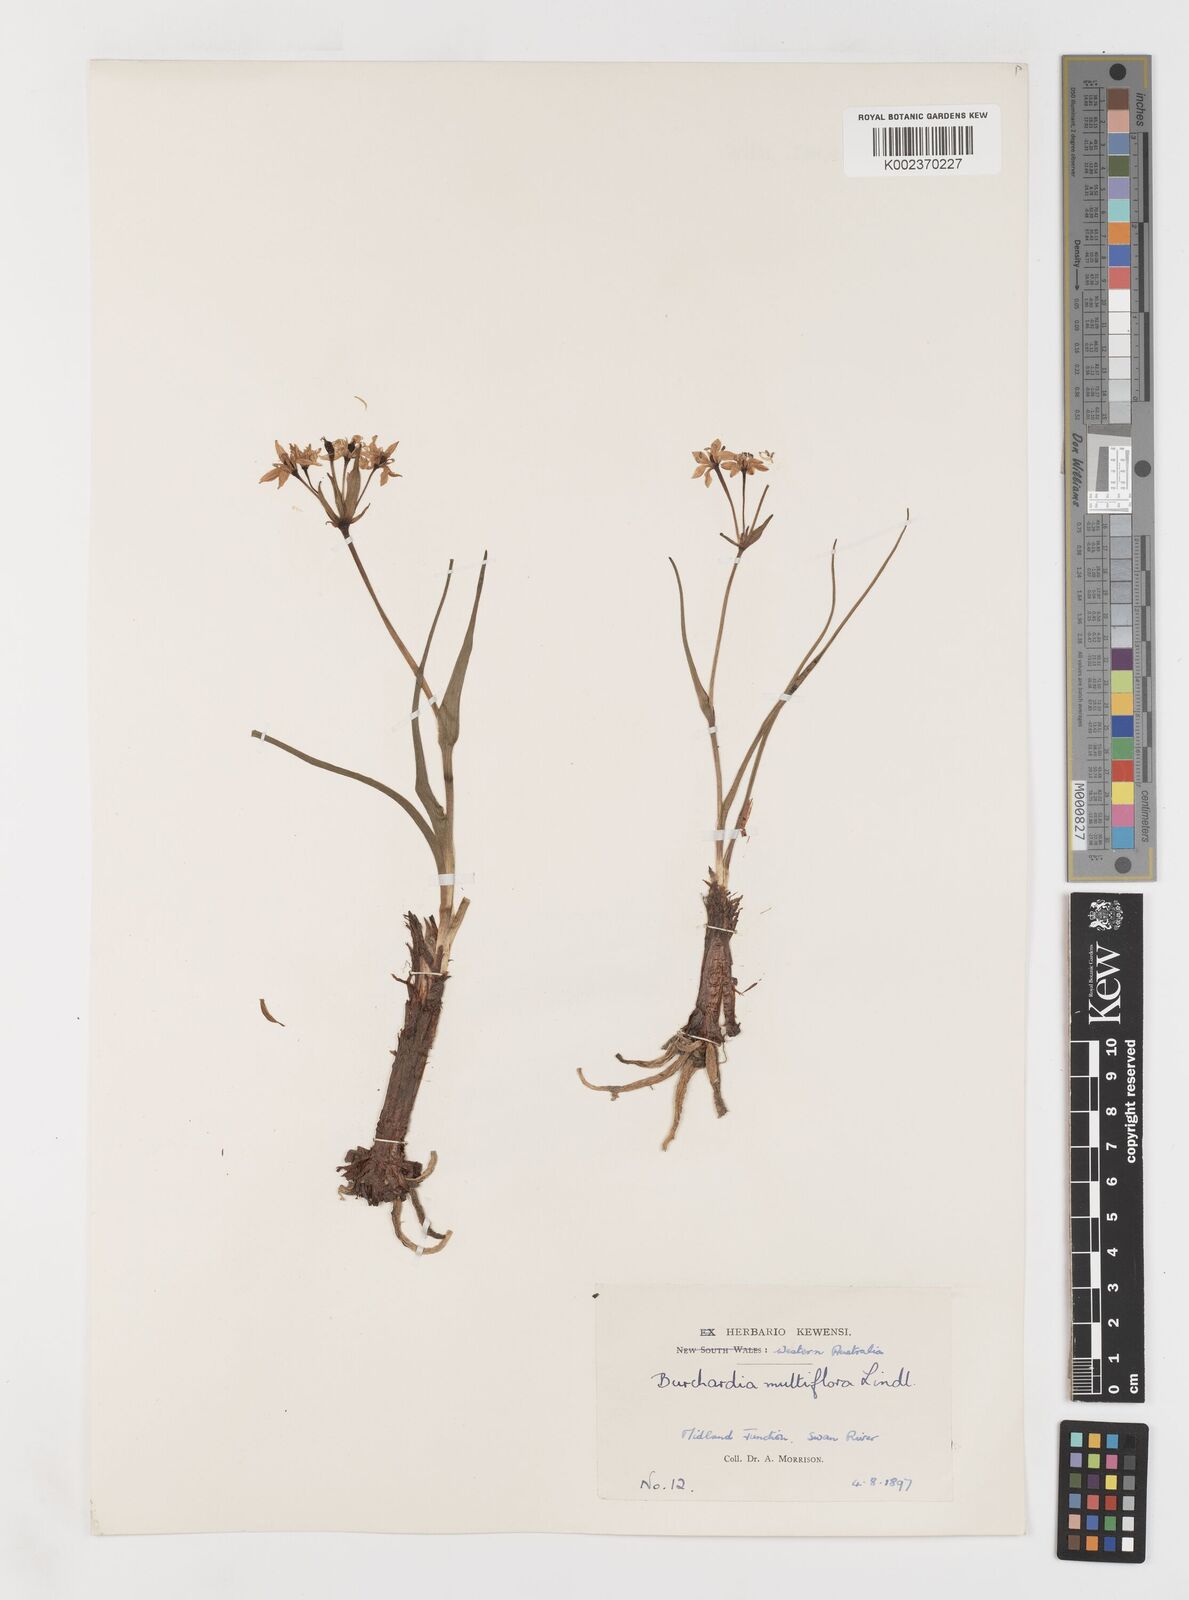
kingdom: Plantae
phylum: Tracheophyta
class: Liliopsida
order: Liliales
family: Colchicaceae
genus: Burchardia
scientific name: Burchardia multiflora
